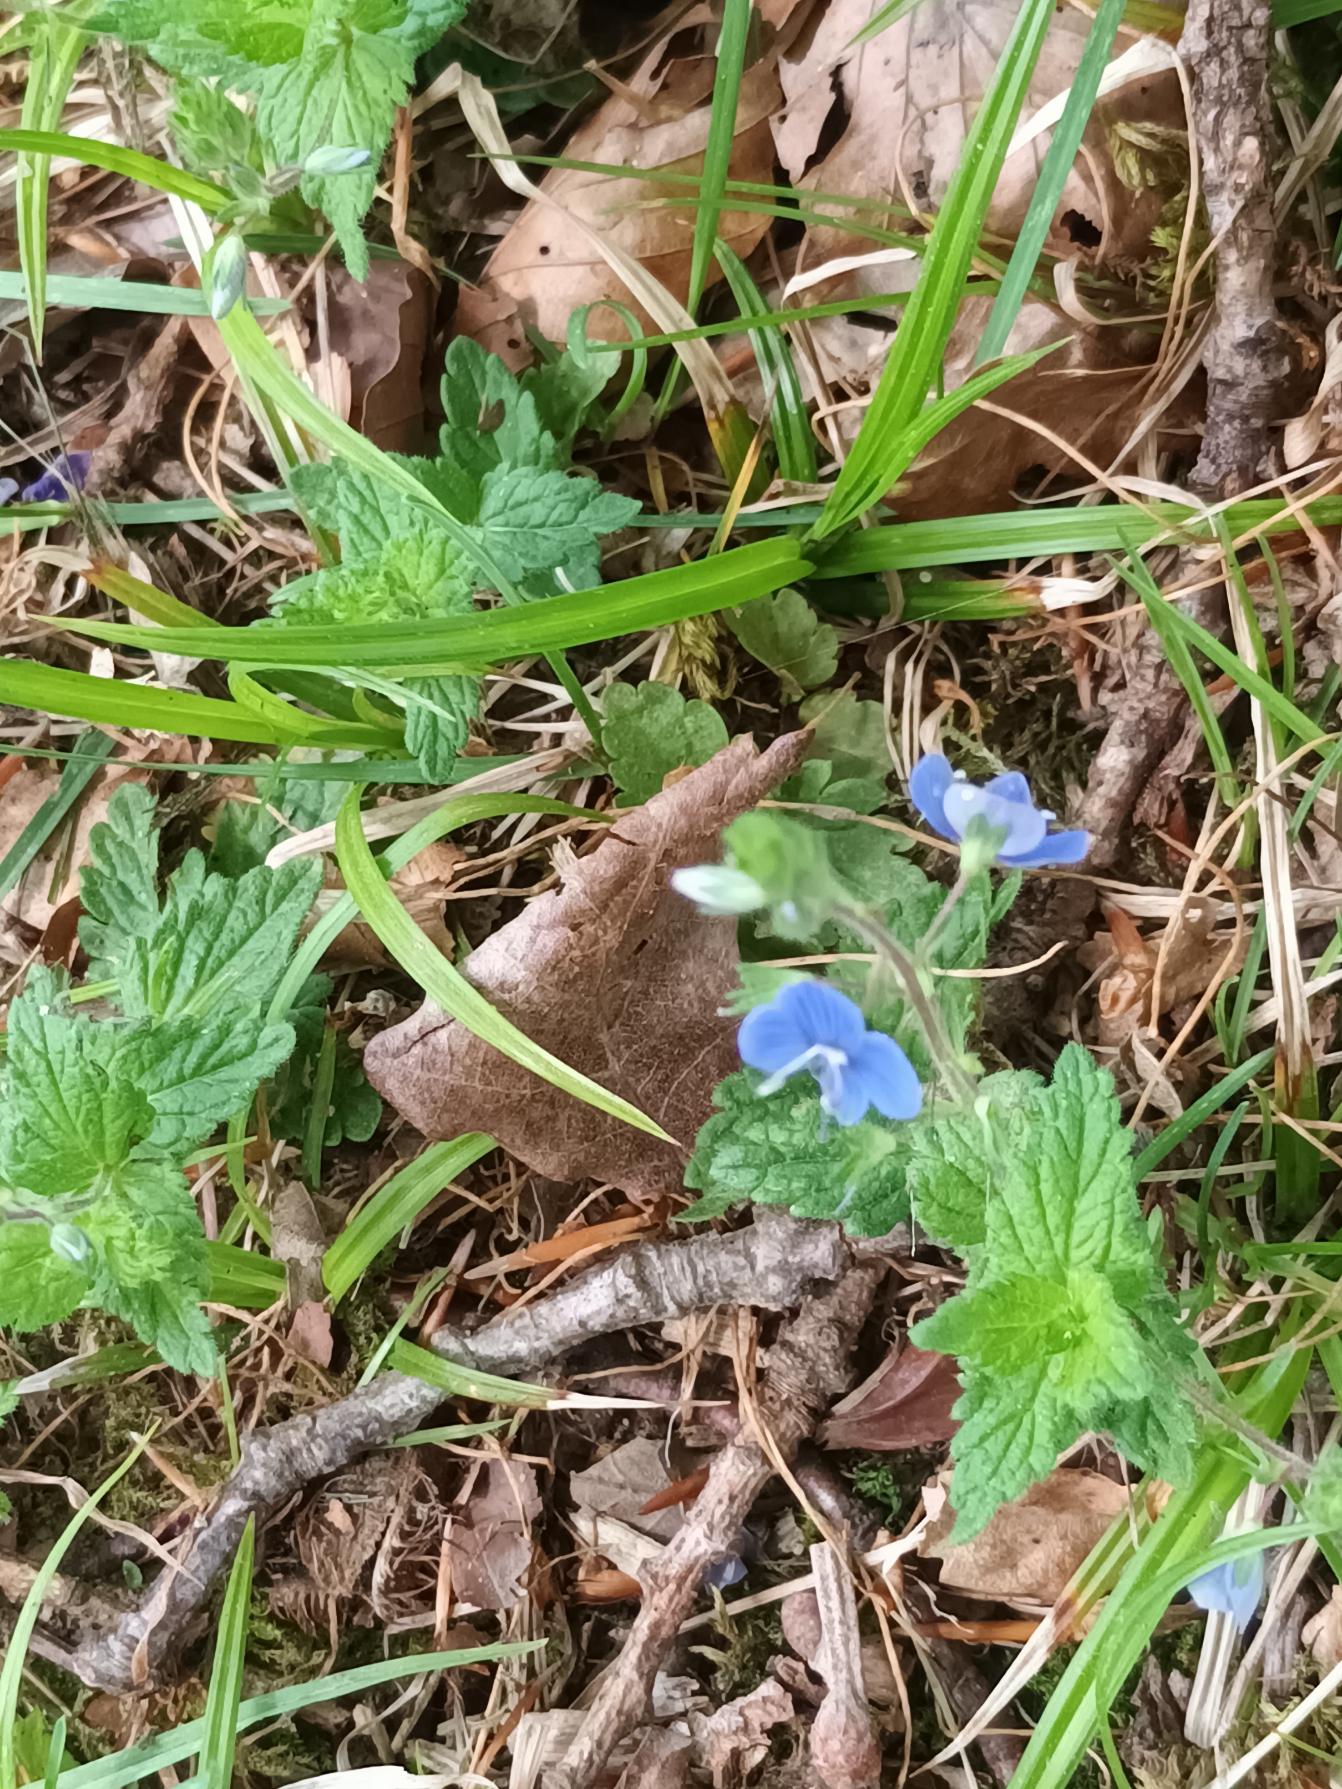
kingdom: Plantae
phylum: Tracheophyta
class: Magnoliopsida
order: Lamiales
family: Plantaginaceae
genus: Veronica
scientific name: Veronica chamaedrys
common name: Tveskægget ærenpris
